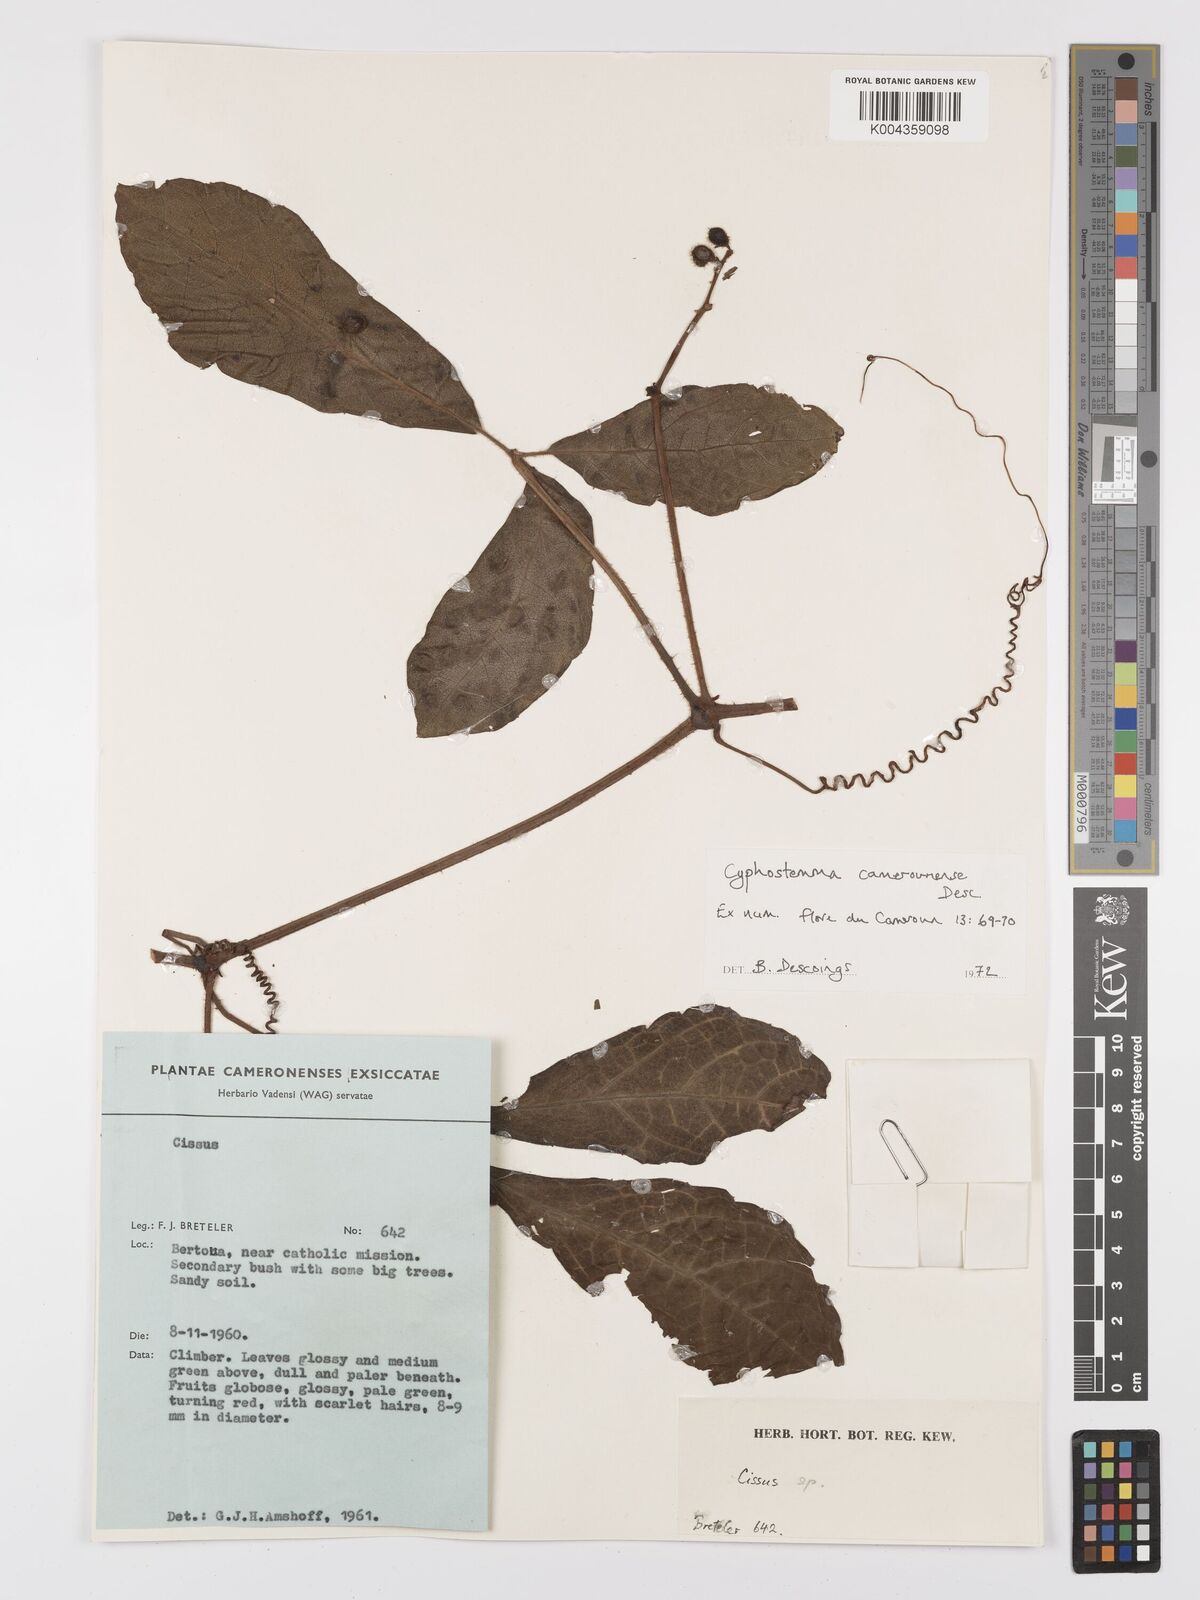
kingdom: Plantae
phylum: Tracheophyta
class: Magnoliopsida
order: Vitales
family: Vitaceae
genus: Cyphostemma
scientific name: Cyphostemma camerounense
